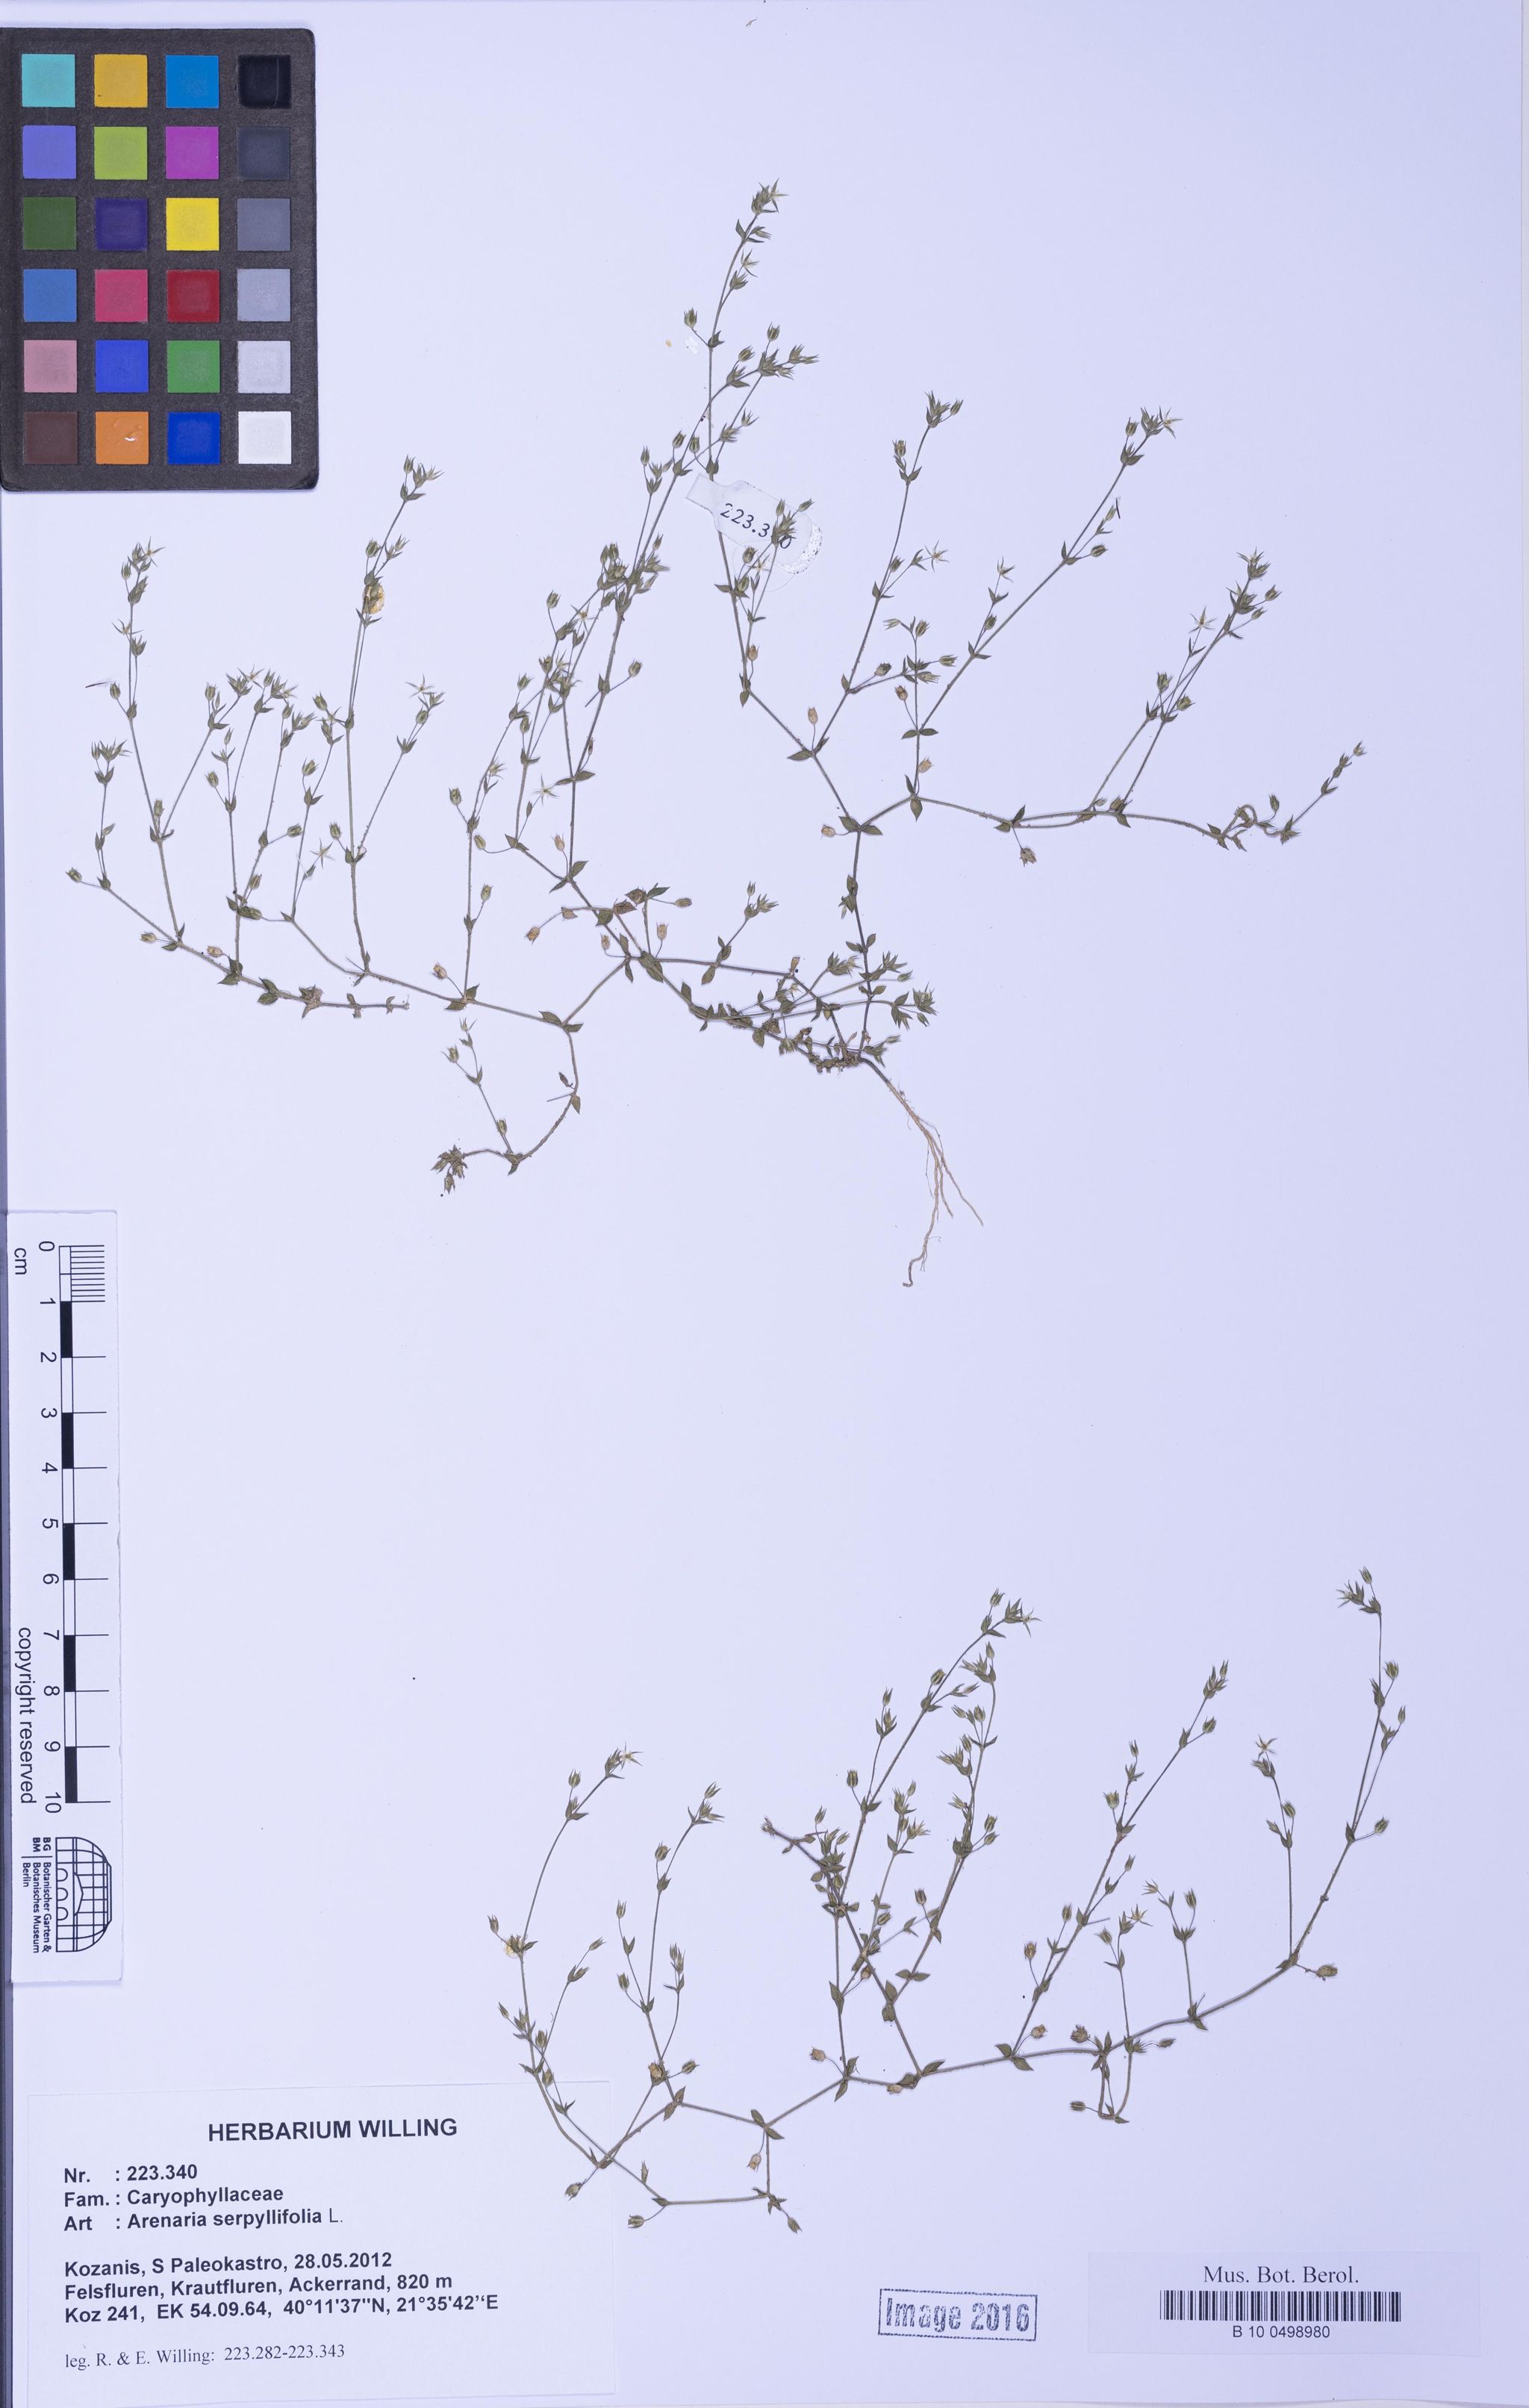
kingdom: Plantae
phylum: Tracheophyta
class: Magnoliopsida
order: Caryophyllales
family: Caryophyllaceae
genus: Arenaria
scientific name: Arenaria serpyllifolia
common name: Thyme-leaved sandwort
